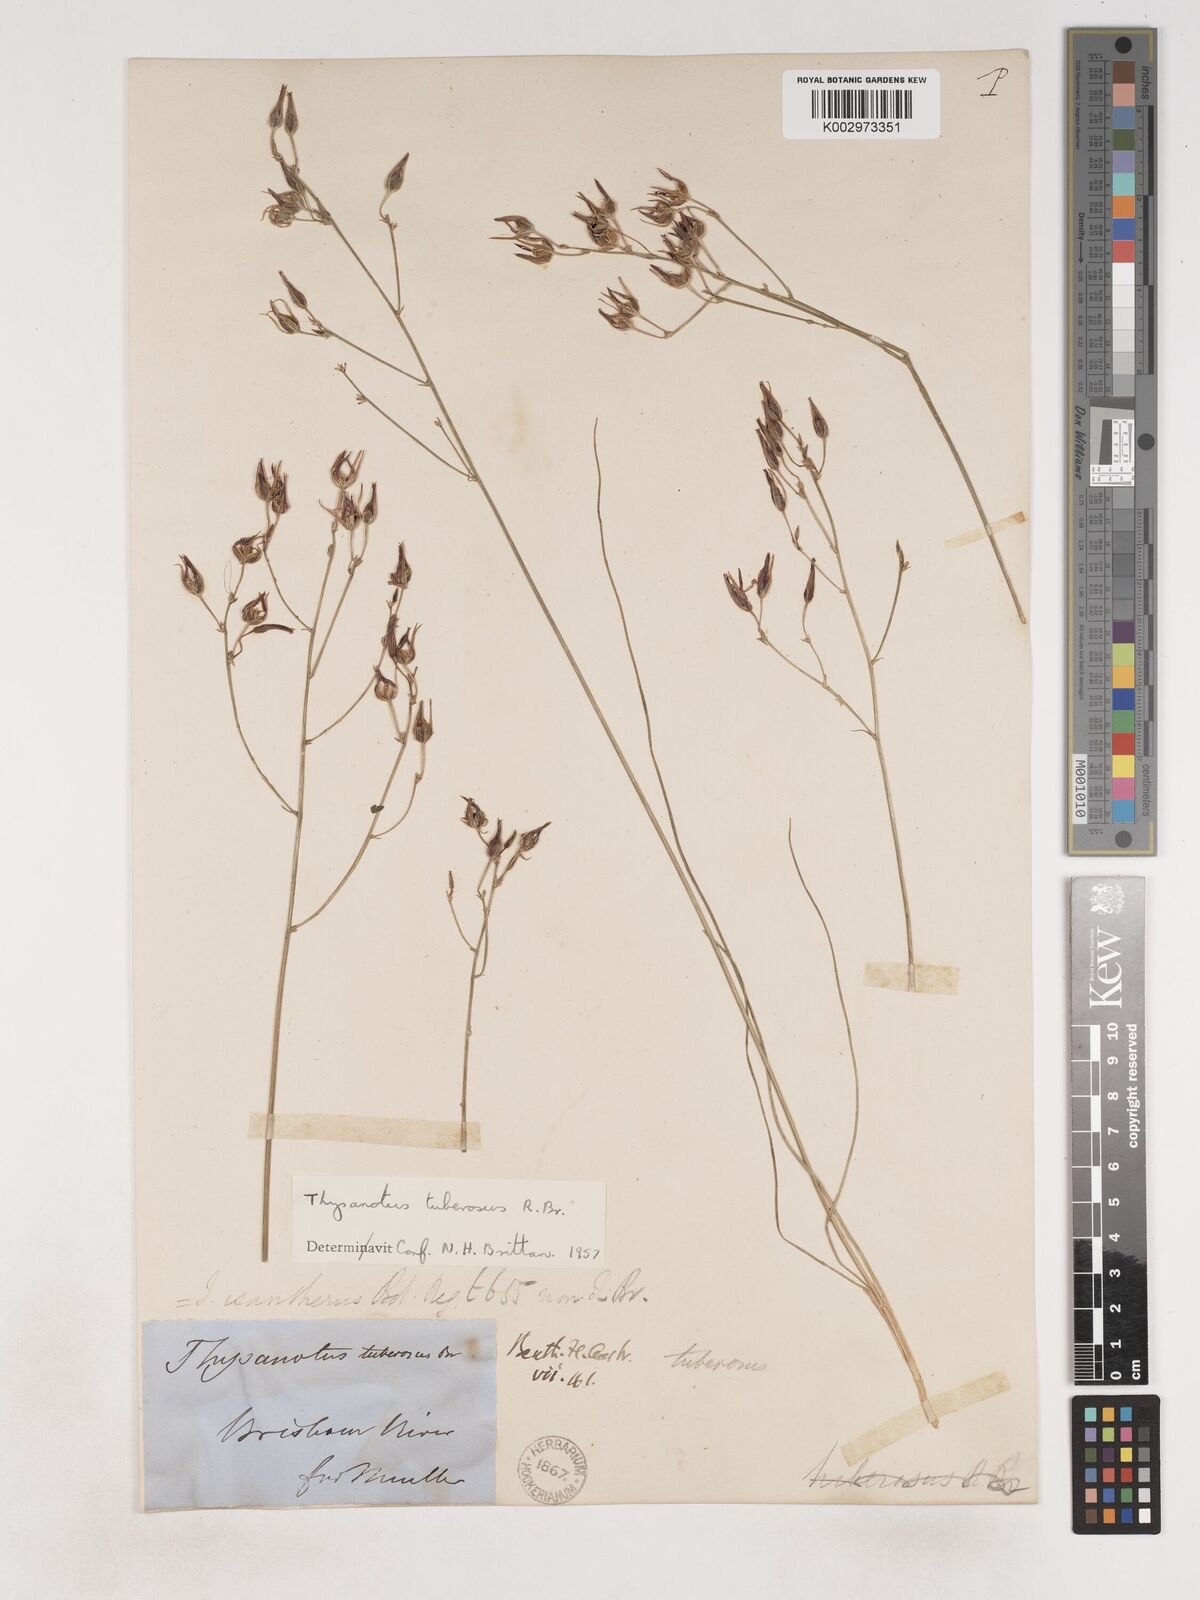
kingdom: Plantae
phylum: Tracheophyta
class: Liliopsida
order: Asparagales
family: Asparagaceae
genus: Thysanotus
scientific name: Thysanotus tuberosus
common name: Common fringed-lily
